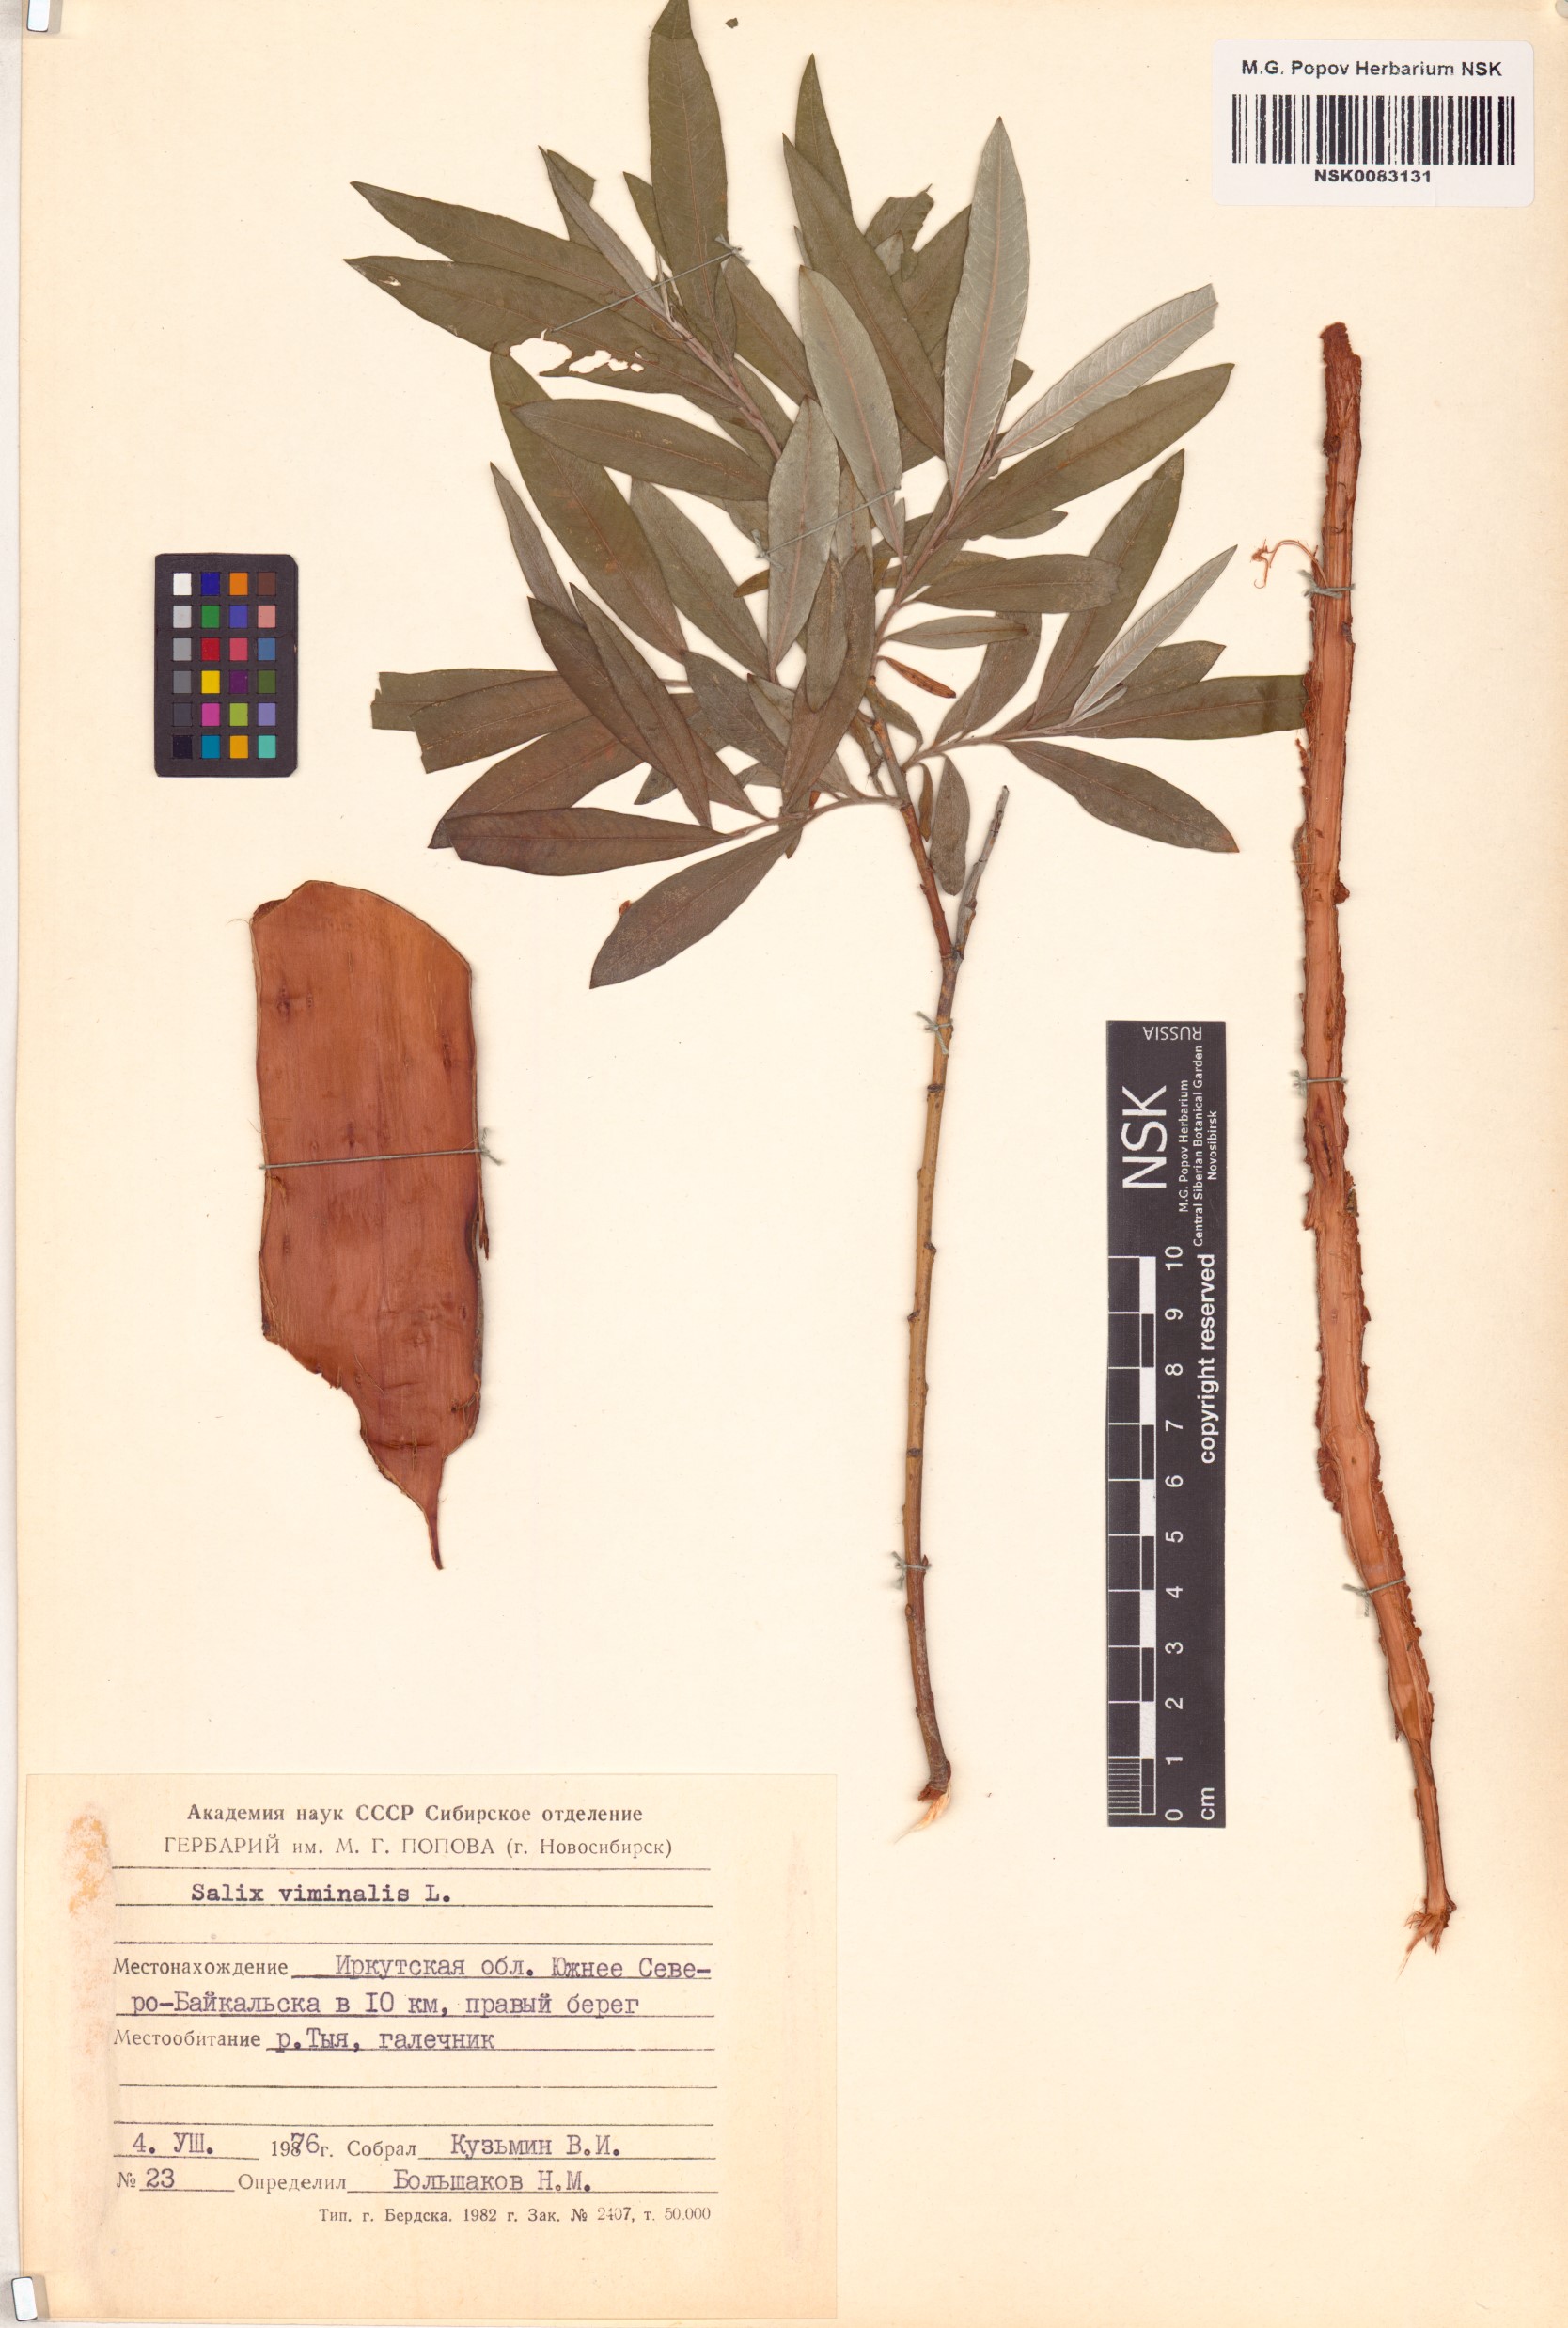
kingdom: Plantae
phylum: Tracheophyta
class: Magnoliopsida
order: Malpighiales
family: Salicaceae
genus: Salix
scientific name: Salix viminalis
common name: Osier
